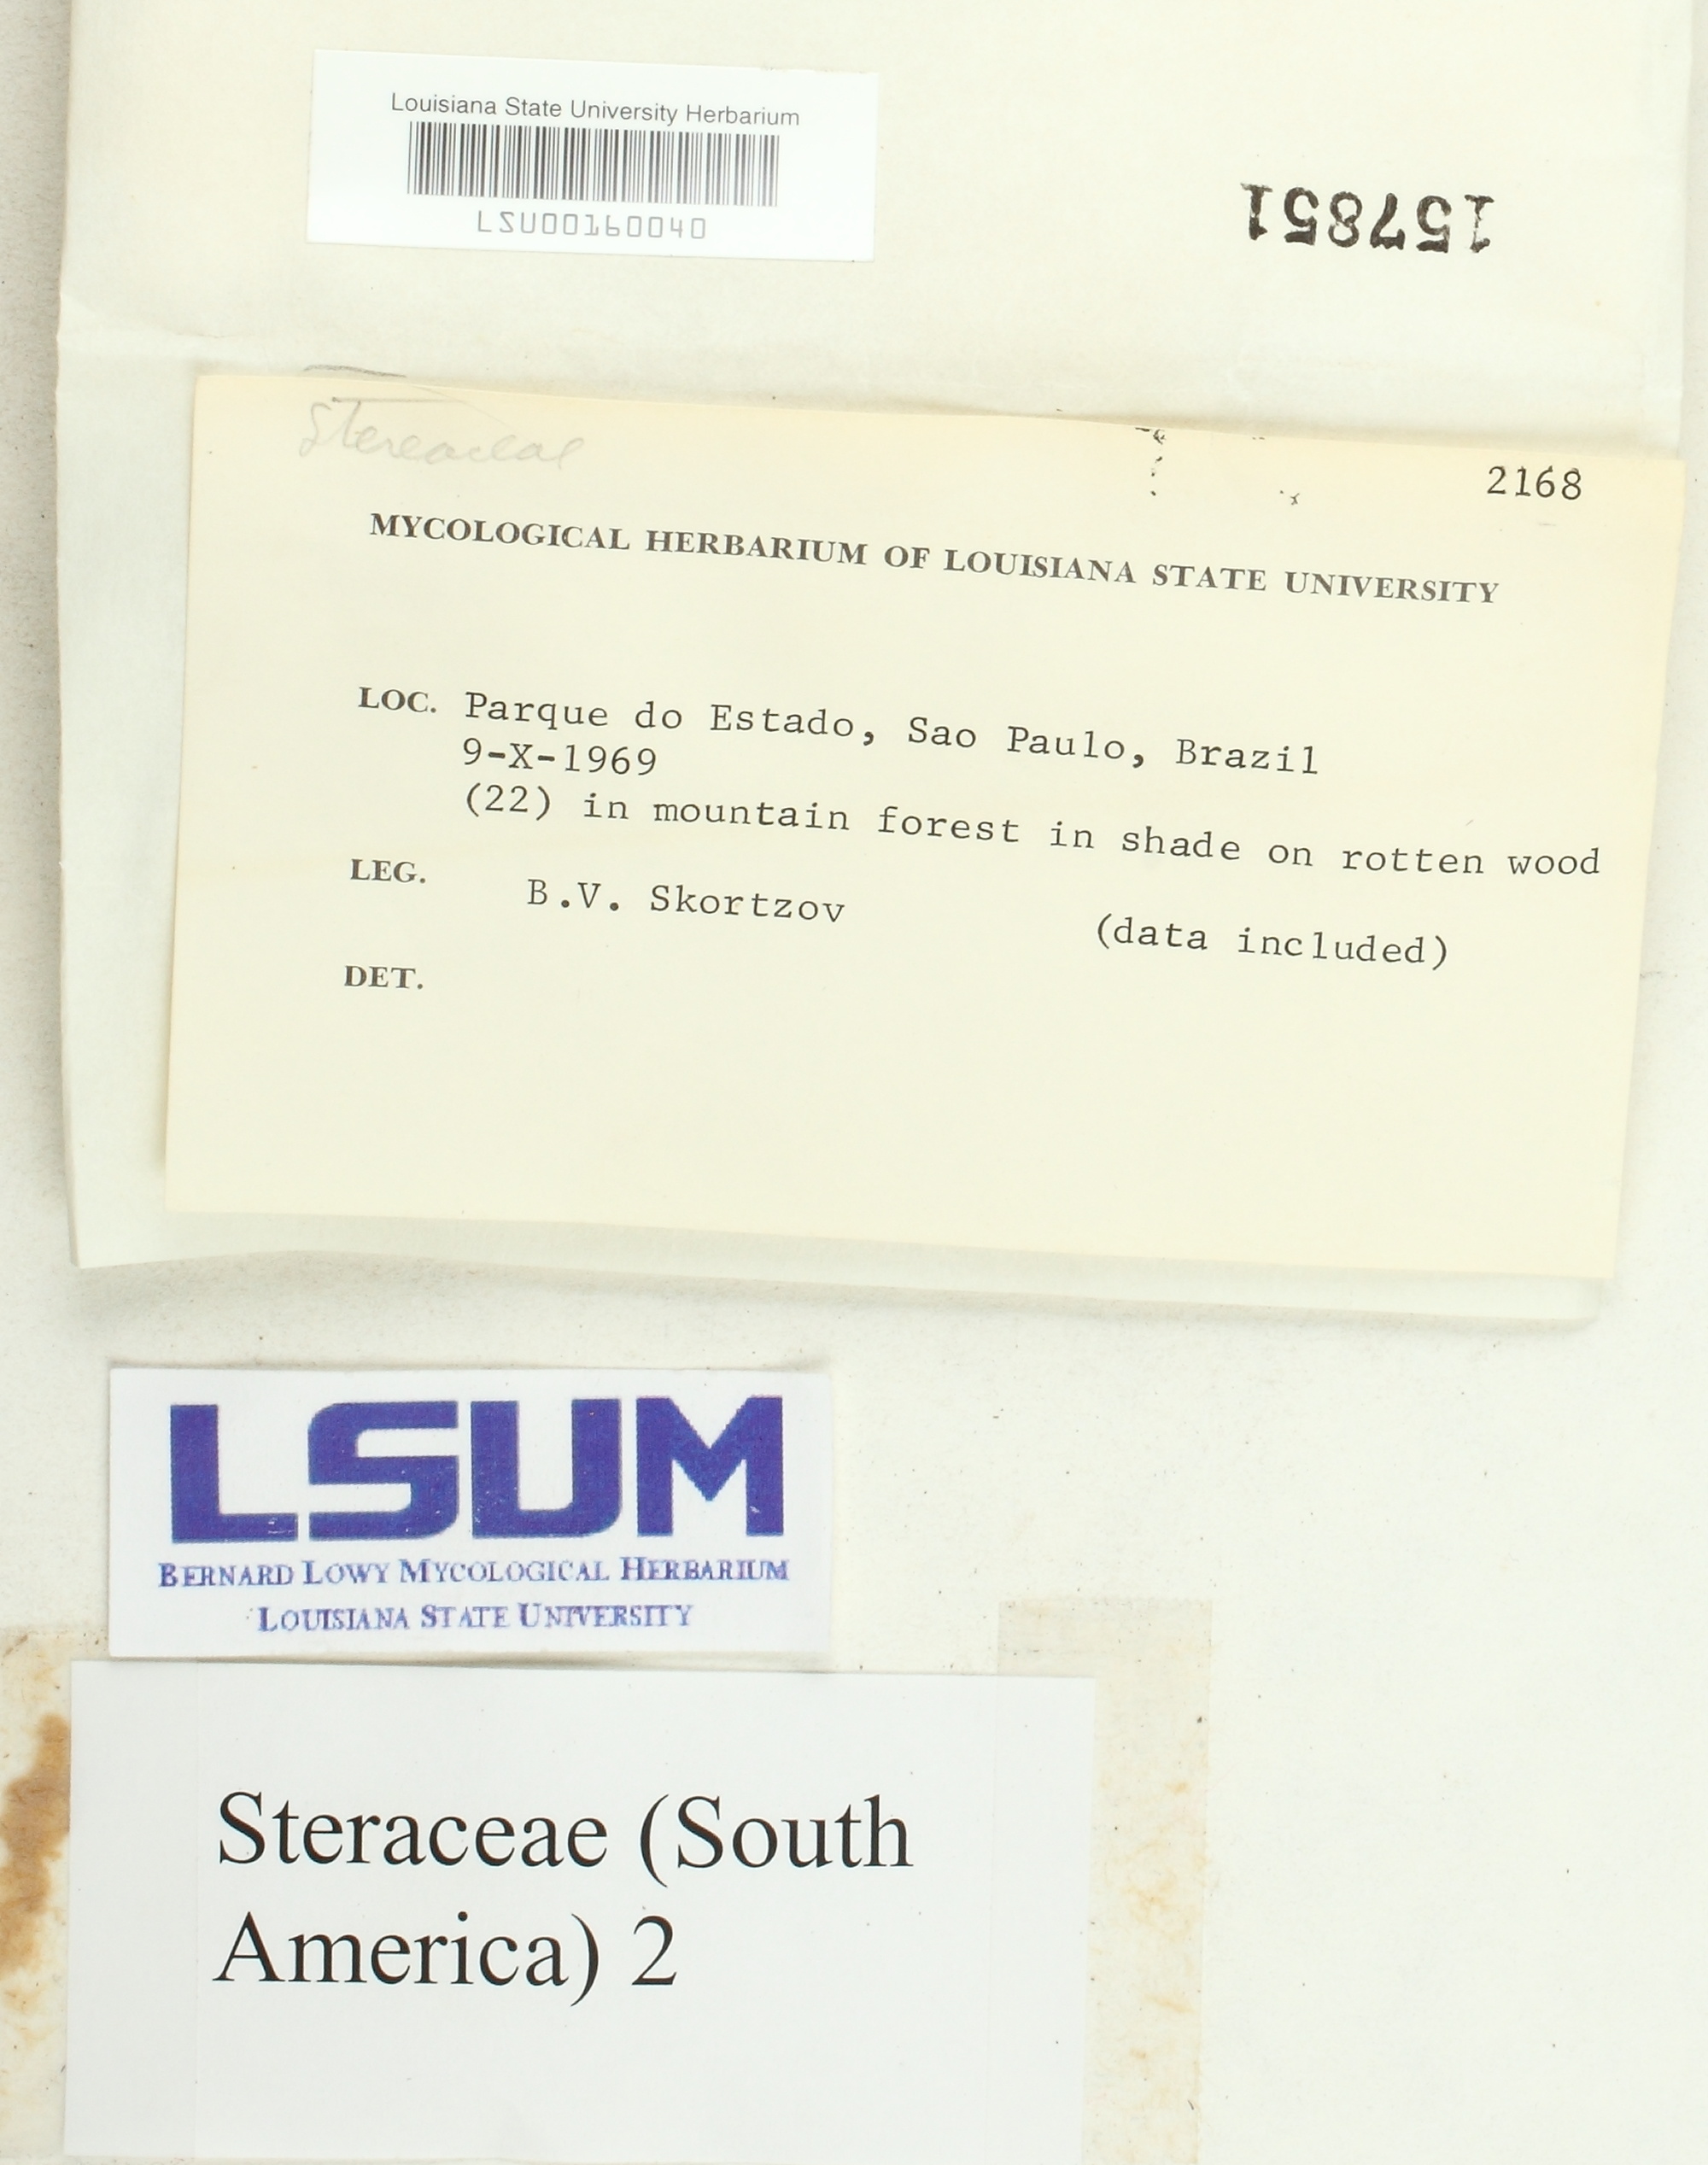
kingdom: Fungi
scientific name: Fungi
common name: Fungi
